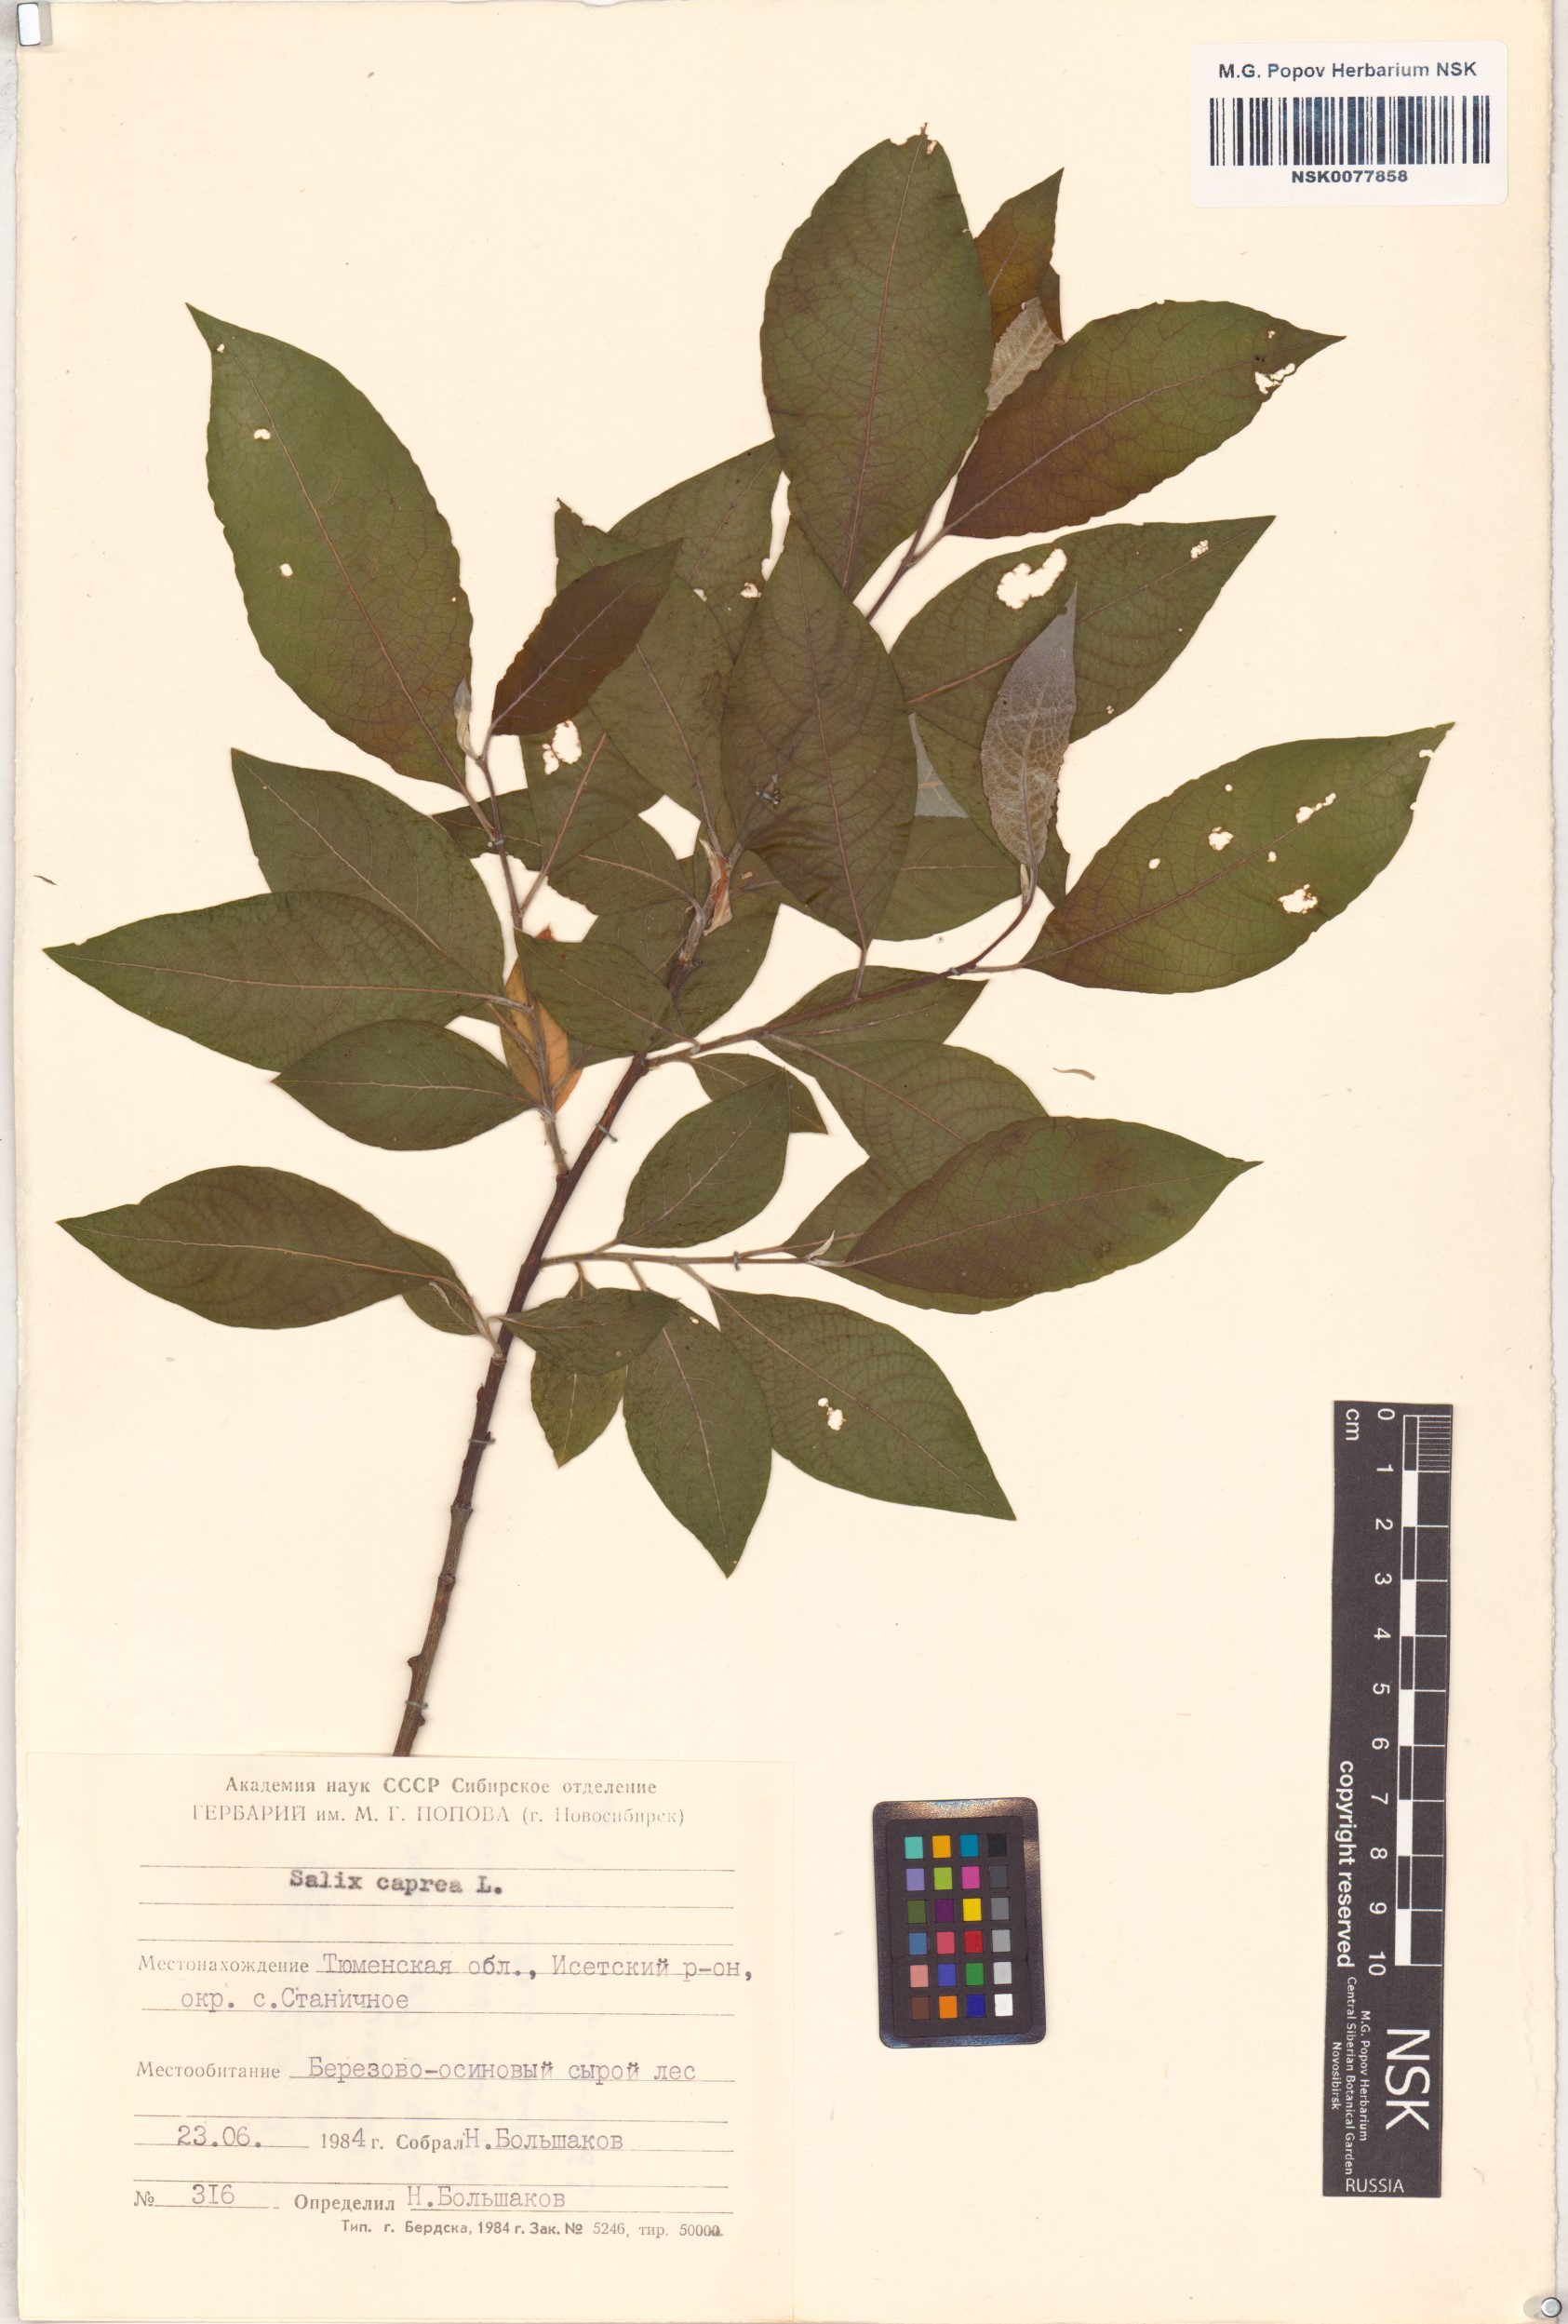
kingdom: Plantae
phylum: Tracheophyta
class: Magnoliopsida
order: Malpighiales
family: Salicaceae
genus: Salix
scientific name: Salix caprea
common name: Goat willow
